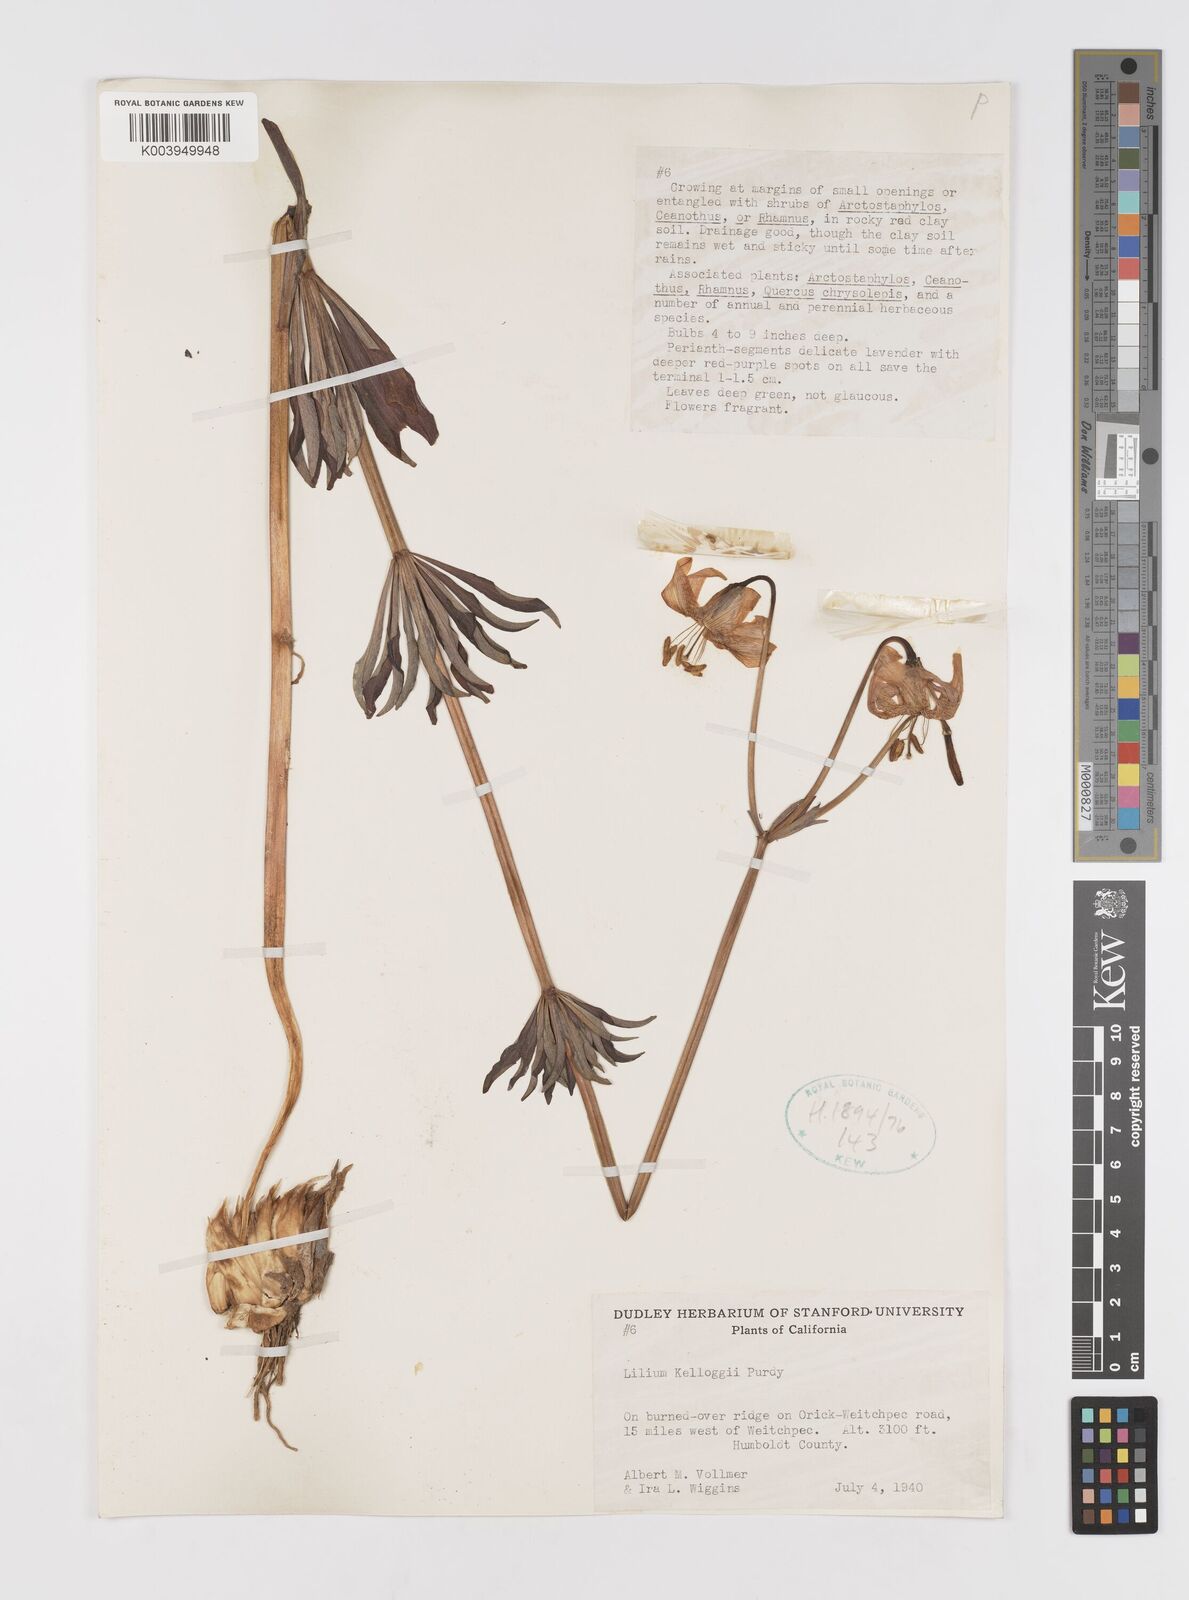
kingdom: Plantae
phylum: Tracheophyta
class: Liliopsida
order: Liliales
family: Liliaceae
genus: Lilium
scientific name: Lilium kelloggii
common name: Kellogg's lily
